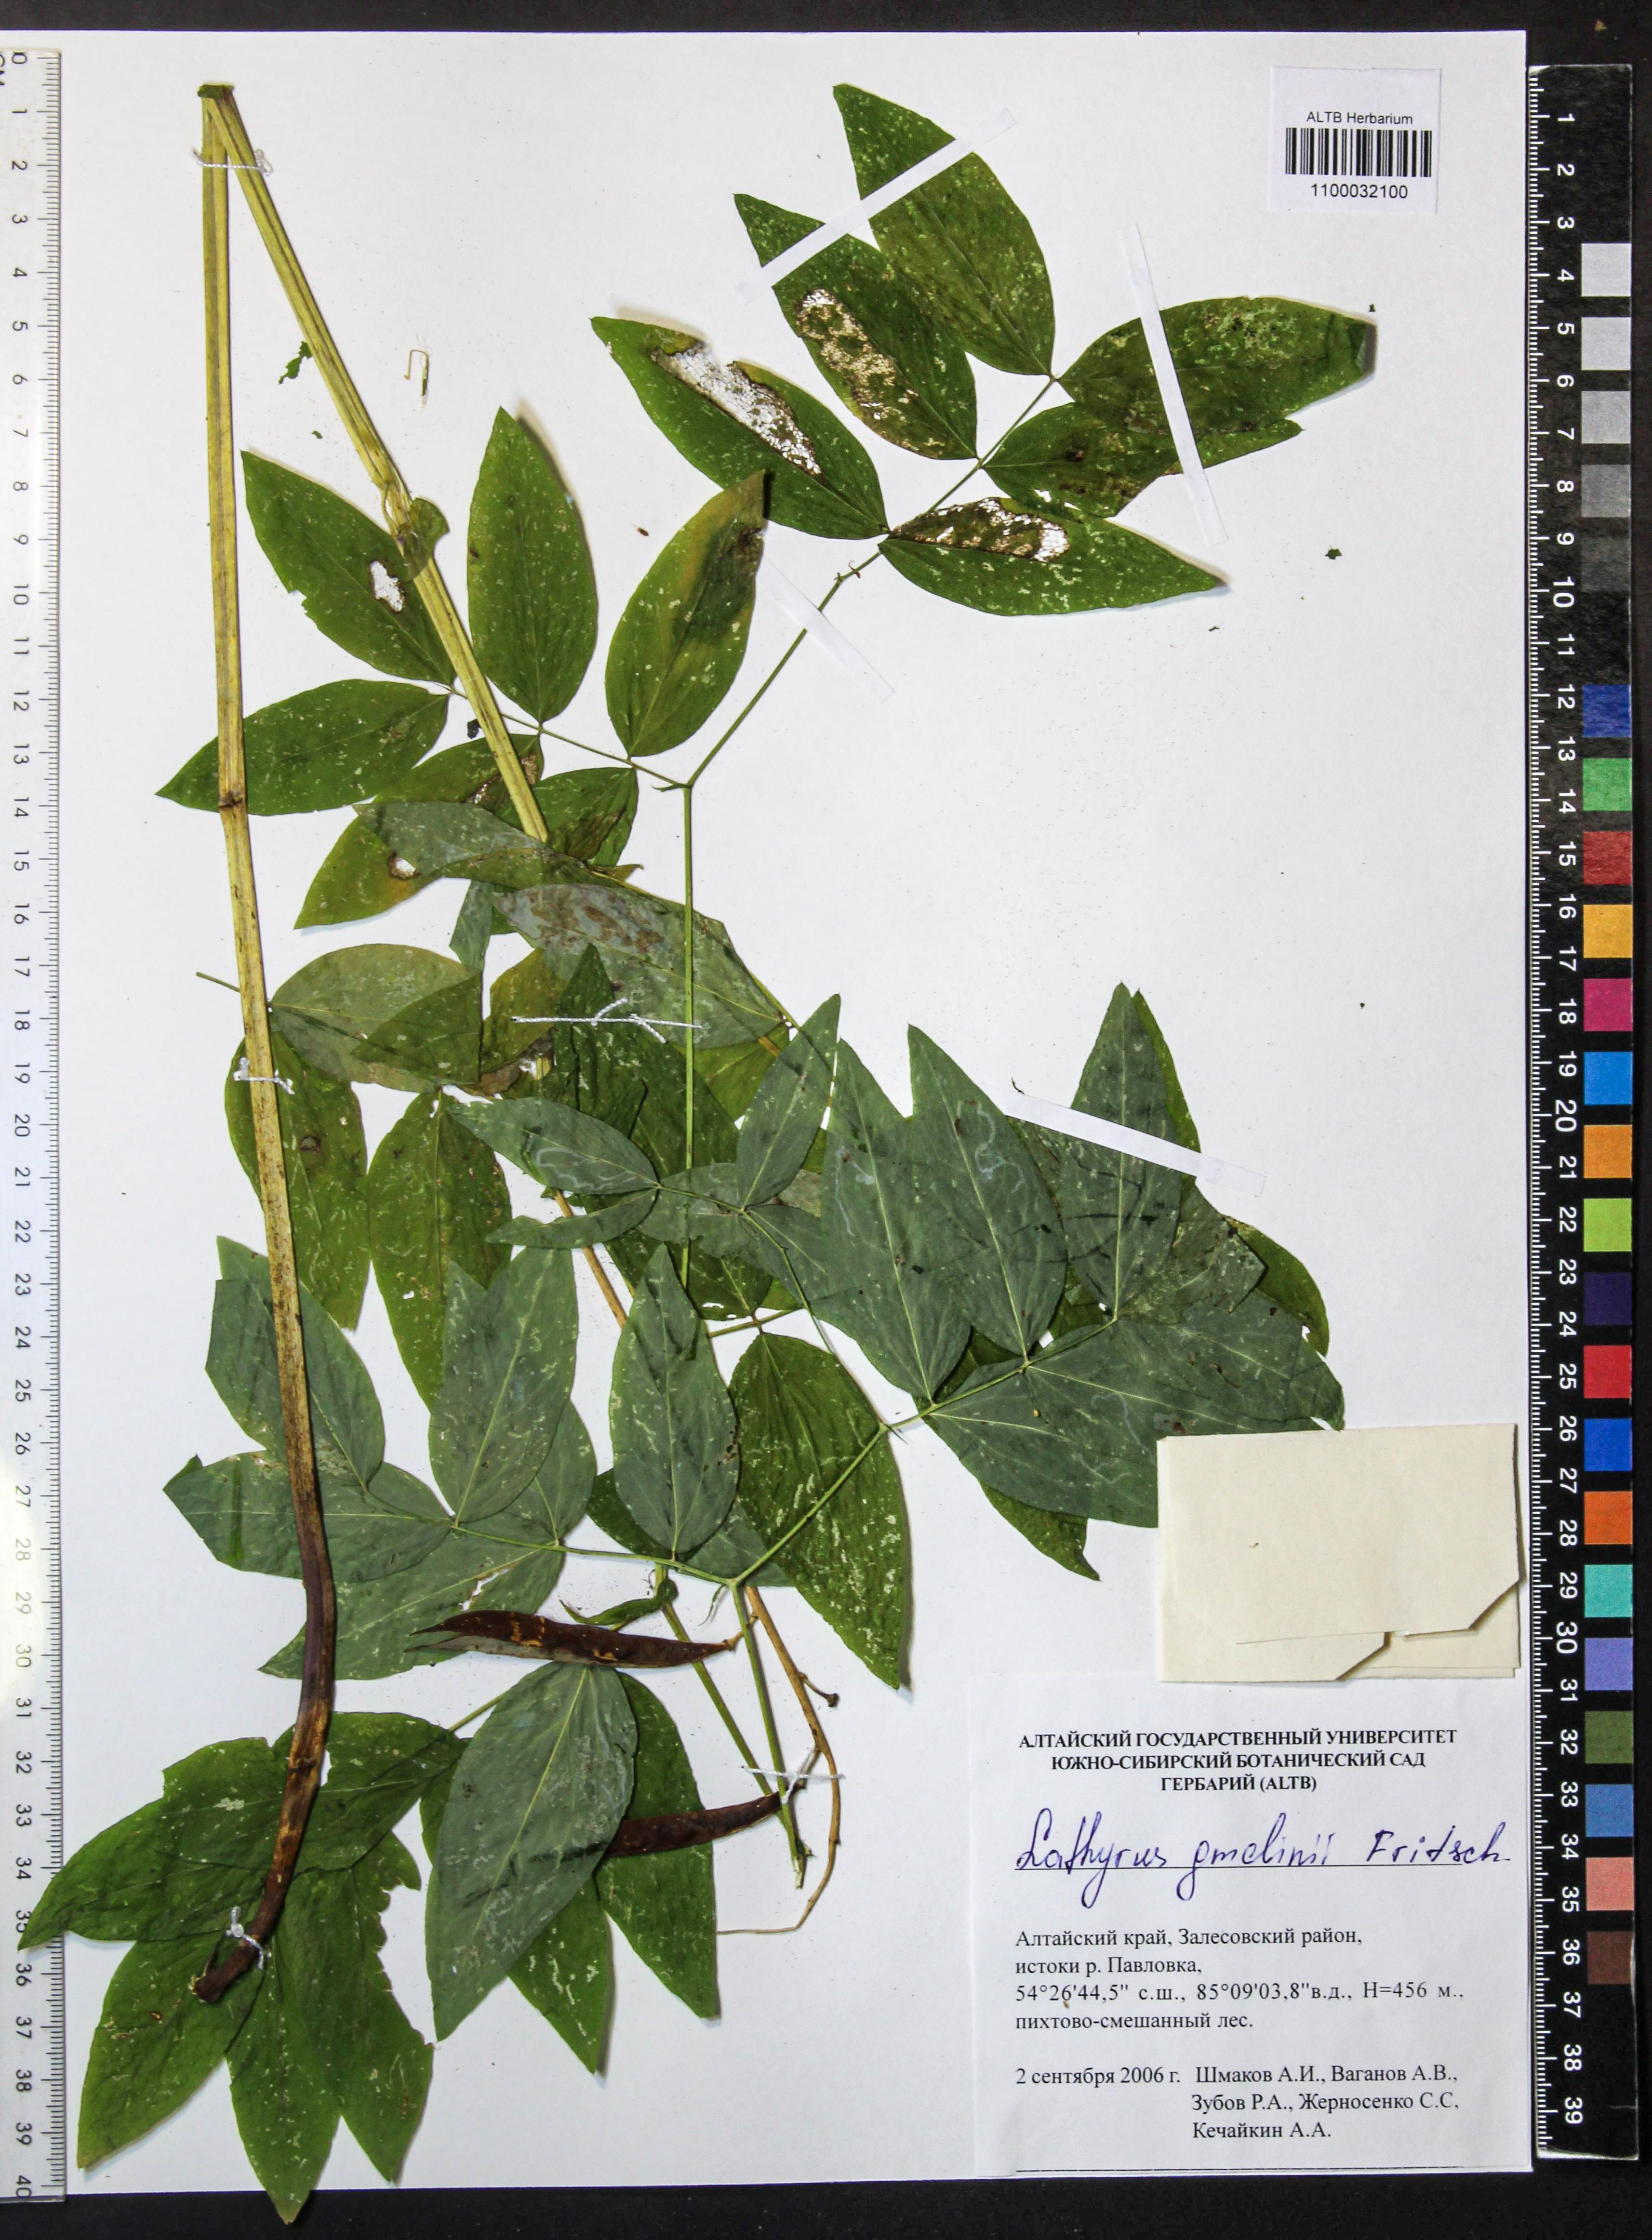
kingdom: Plantae
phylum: Tracheophyta
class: Magnoliopsida
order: Fabales
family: Fabaceae
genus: Lathyrus
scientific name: Lathyrus gmelinii
